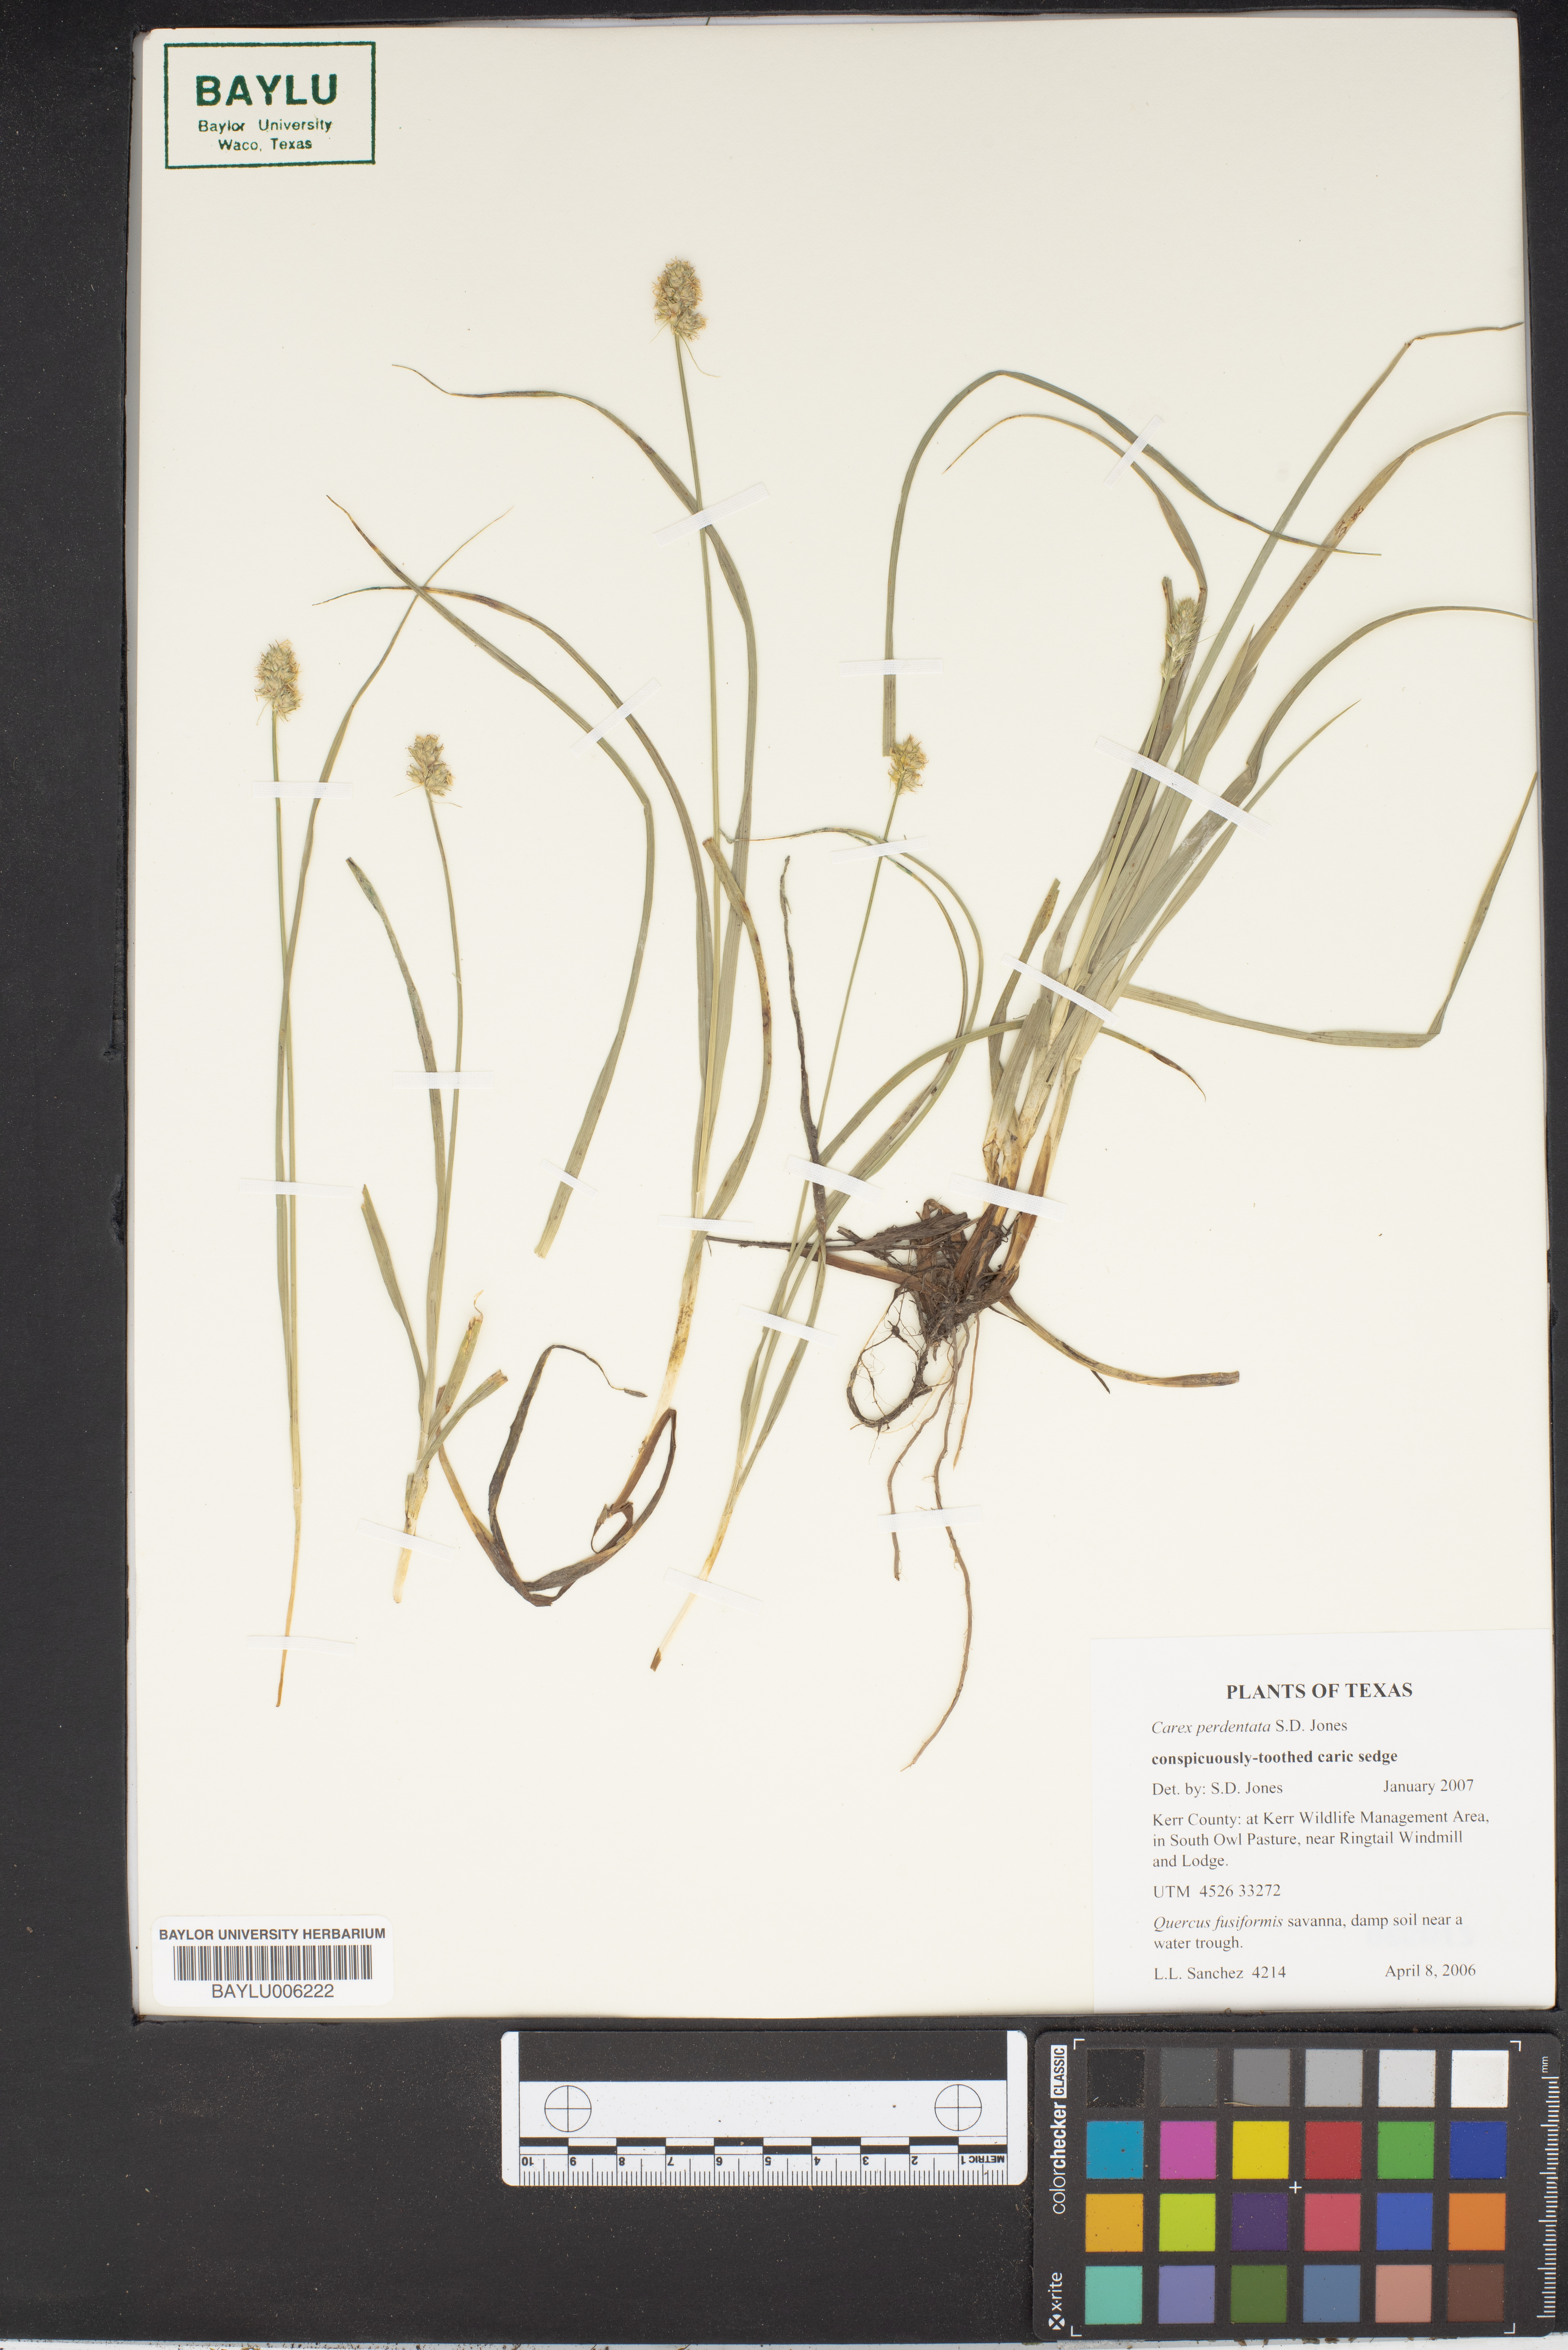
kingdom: Plantae
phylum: Tracheophyta
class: Liliopsida
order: Poales
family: Cyperaceae
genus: Carex
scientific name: Carex perdentata
